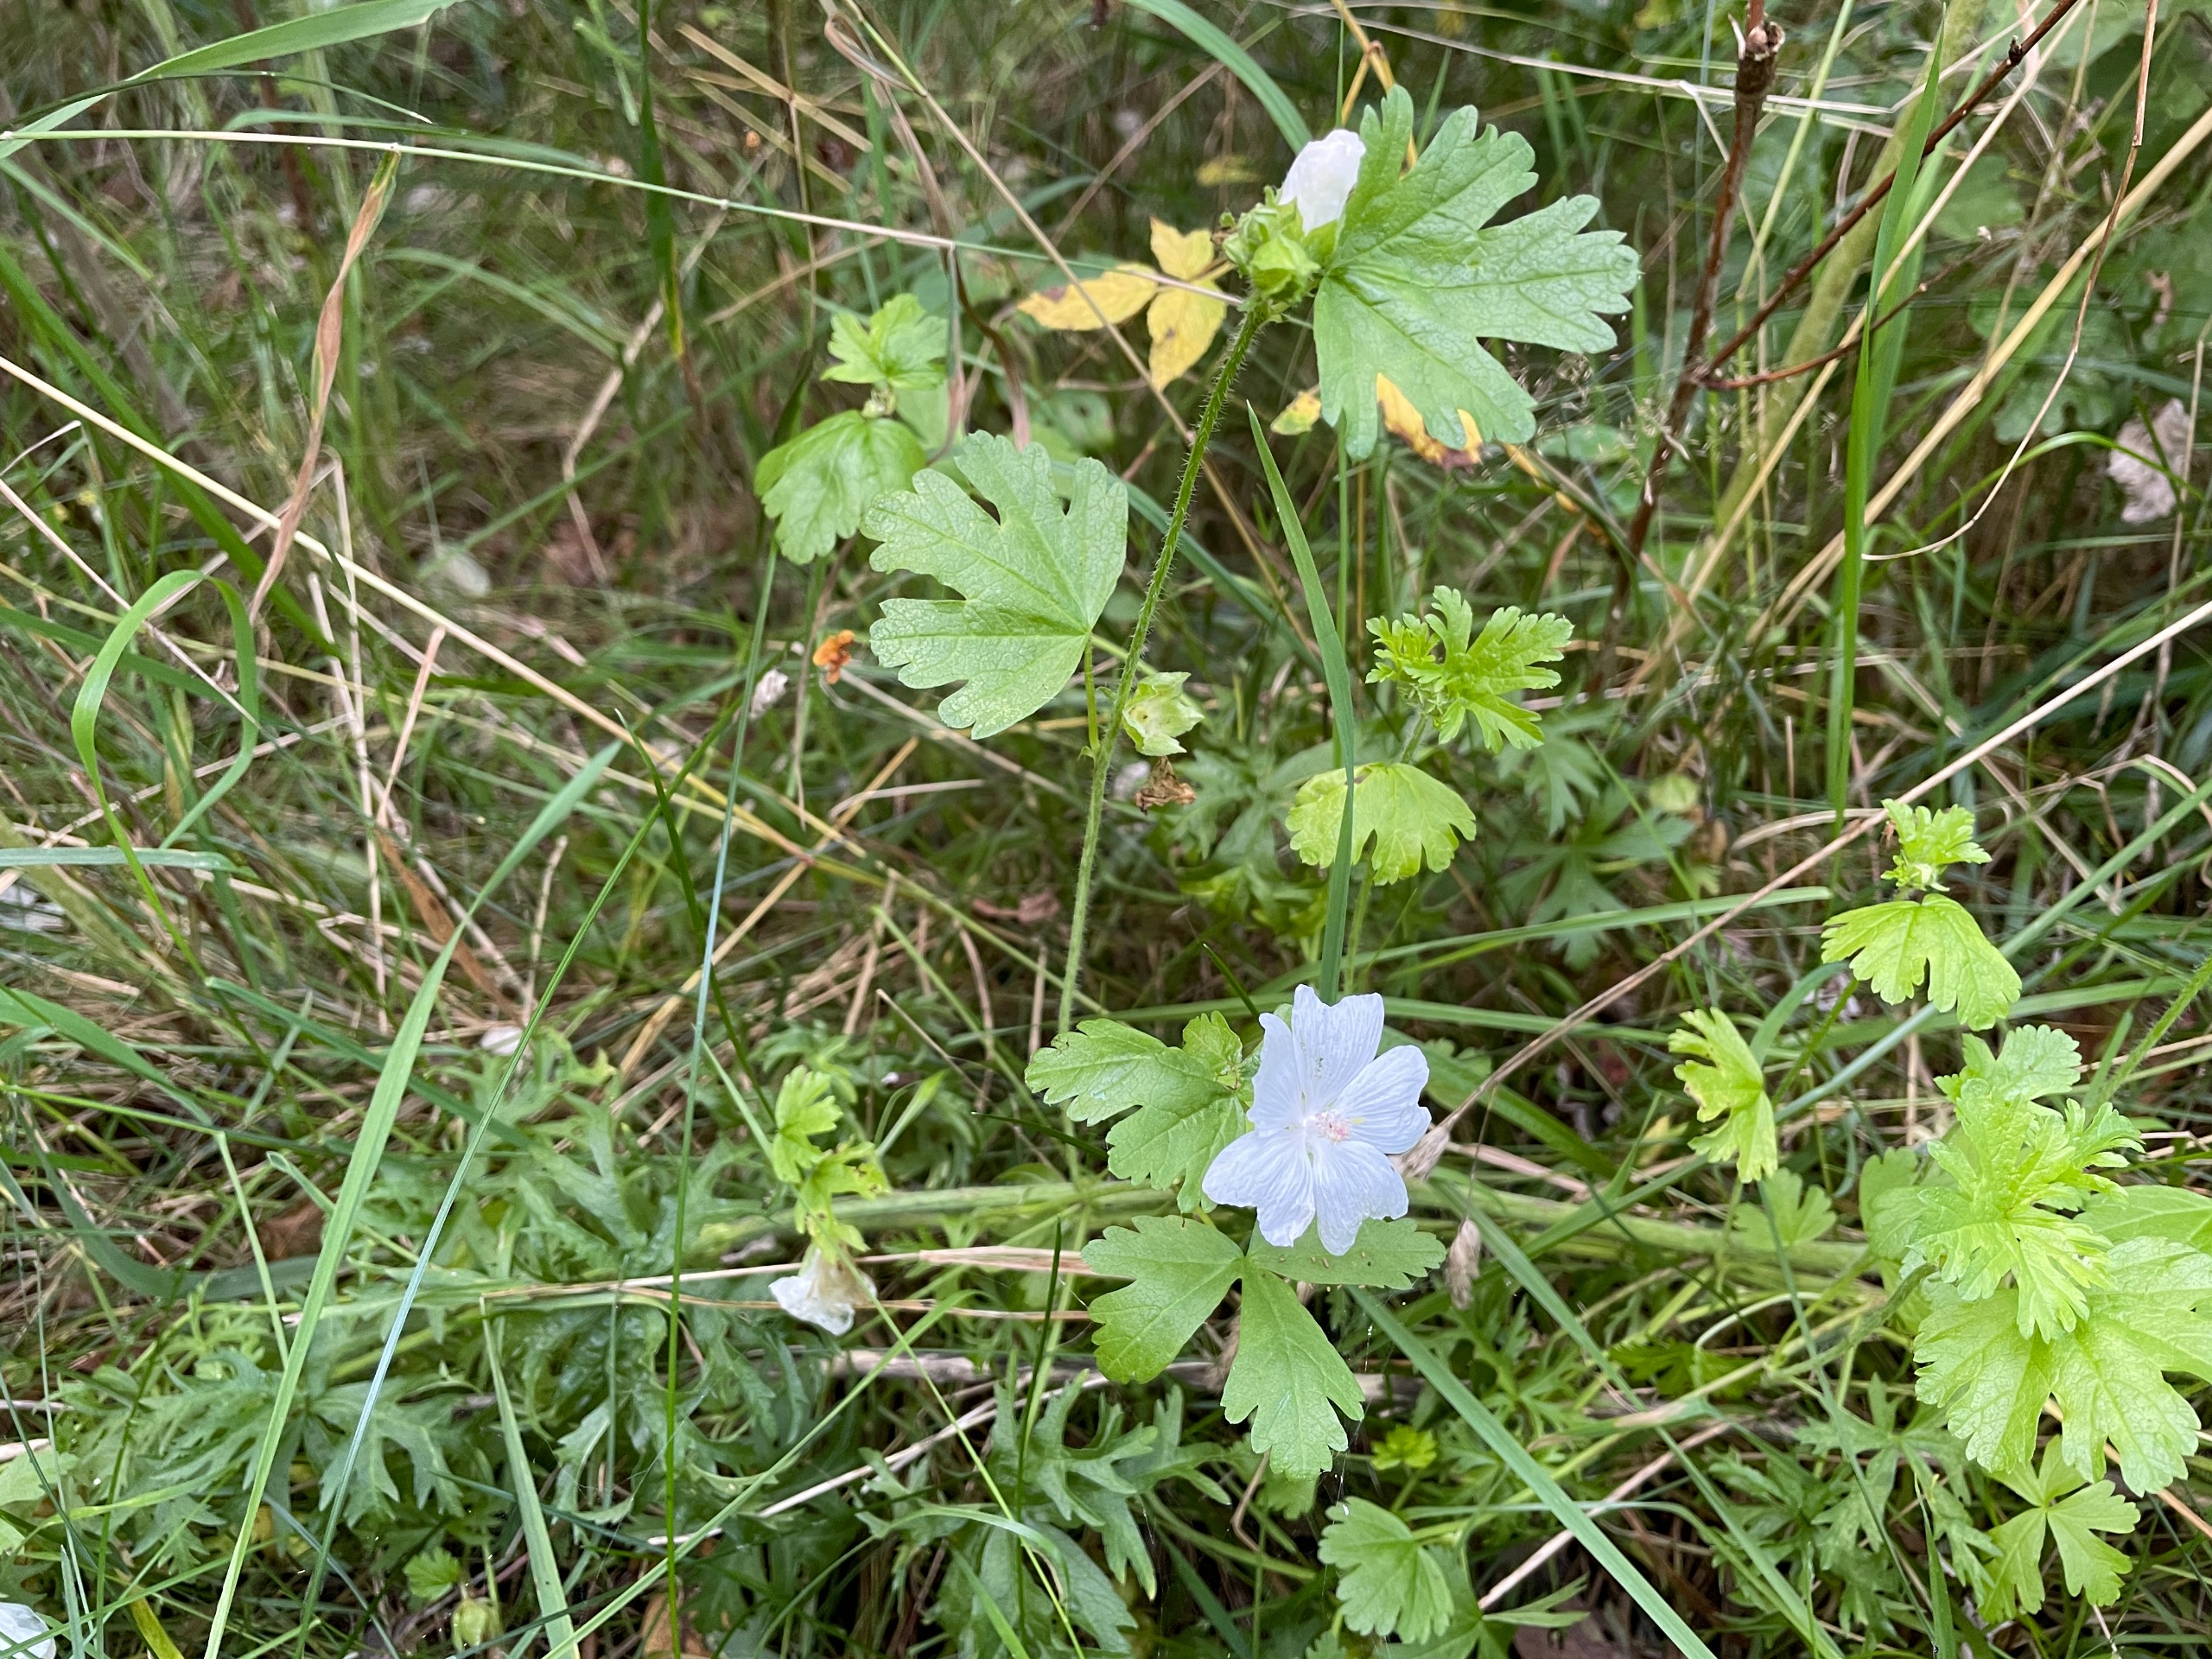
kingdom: Plantae
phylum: Tracheophyta
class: Magnoliopsida
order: Malvales
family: Malvaceae
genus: Malva
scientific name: Malva moschata
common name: Moskus-katost
